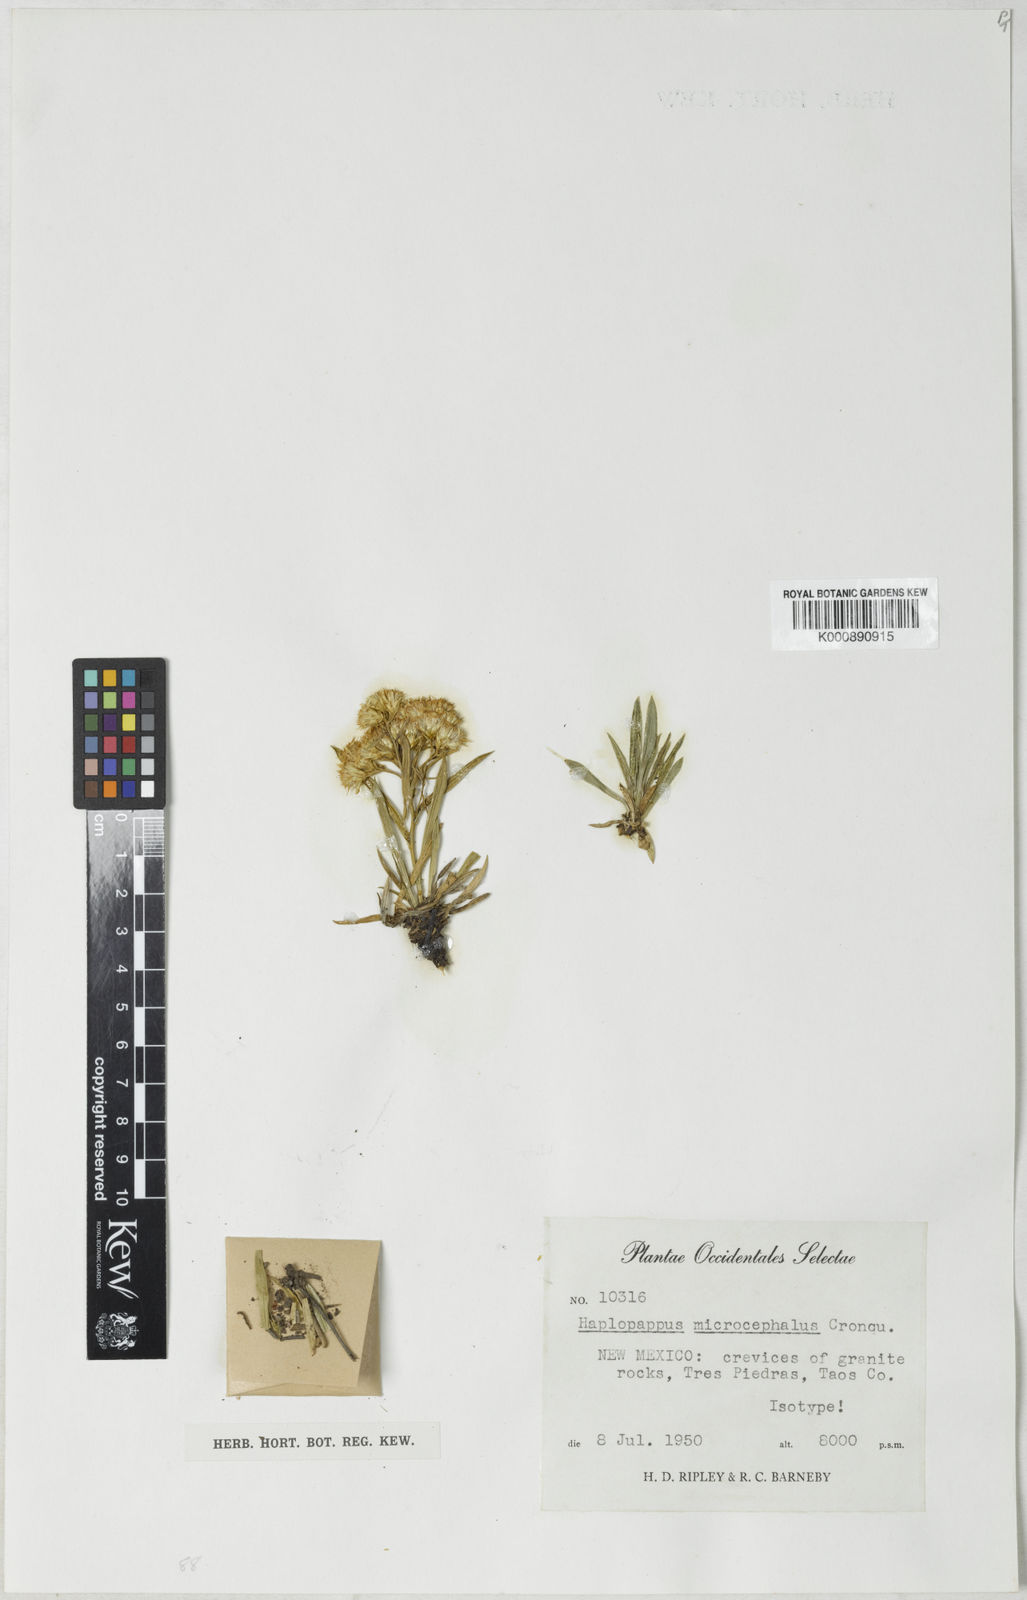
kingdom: Plantae
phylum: Tracheophyta
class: Magnoliopsida
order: Asterales
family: Asteraceae
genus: Lorandersonia
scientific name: Lorandersonia microcephala
